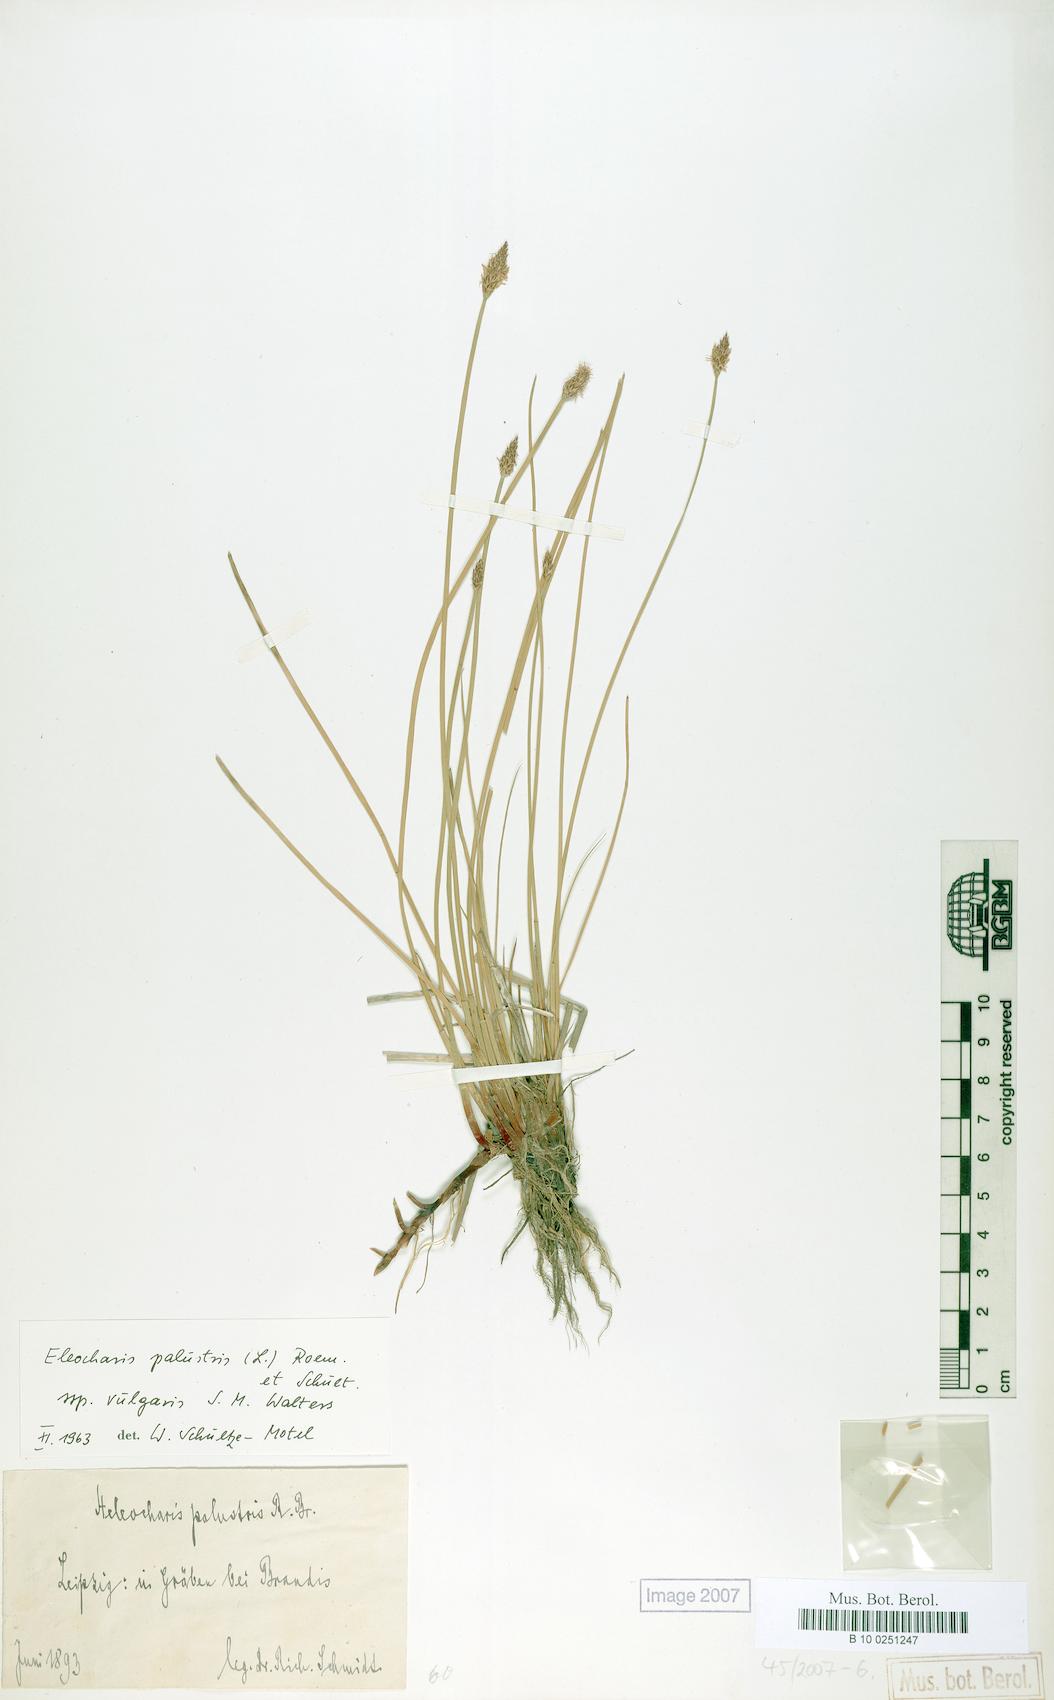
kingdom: Plantae
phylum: Tracheophyta
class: Liliopsida
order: Poales
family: Cyperaceae
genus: Eleocharis
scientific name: Eleocharis palustris
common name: Common spike-rush
